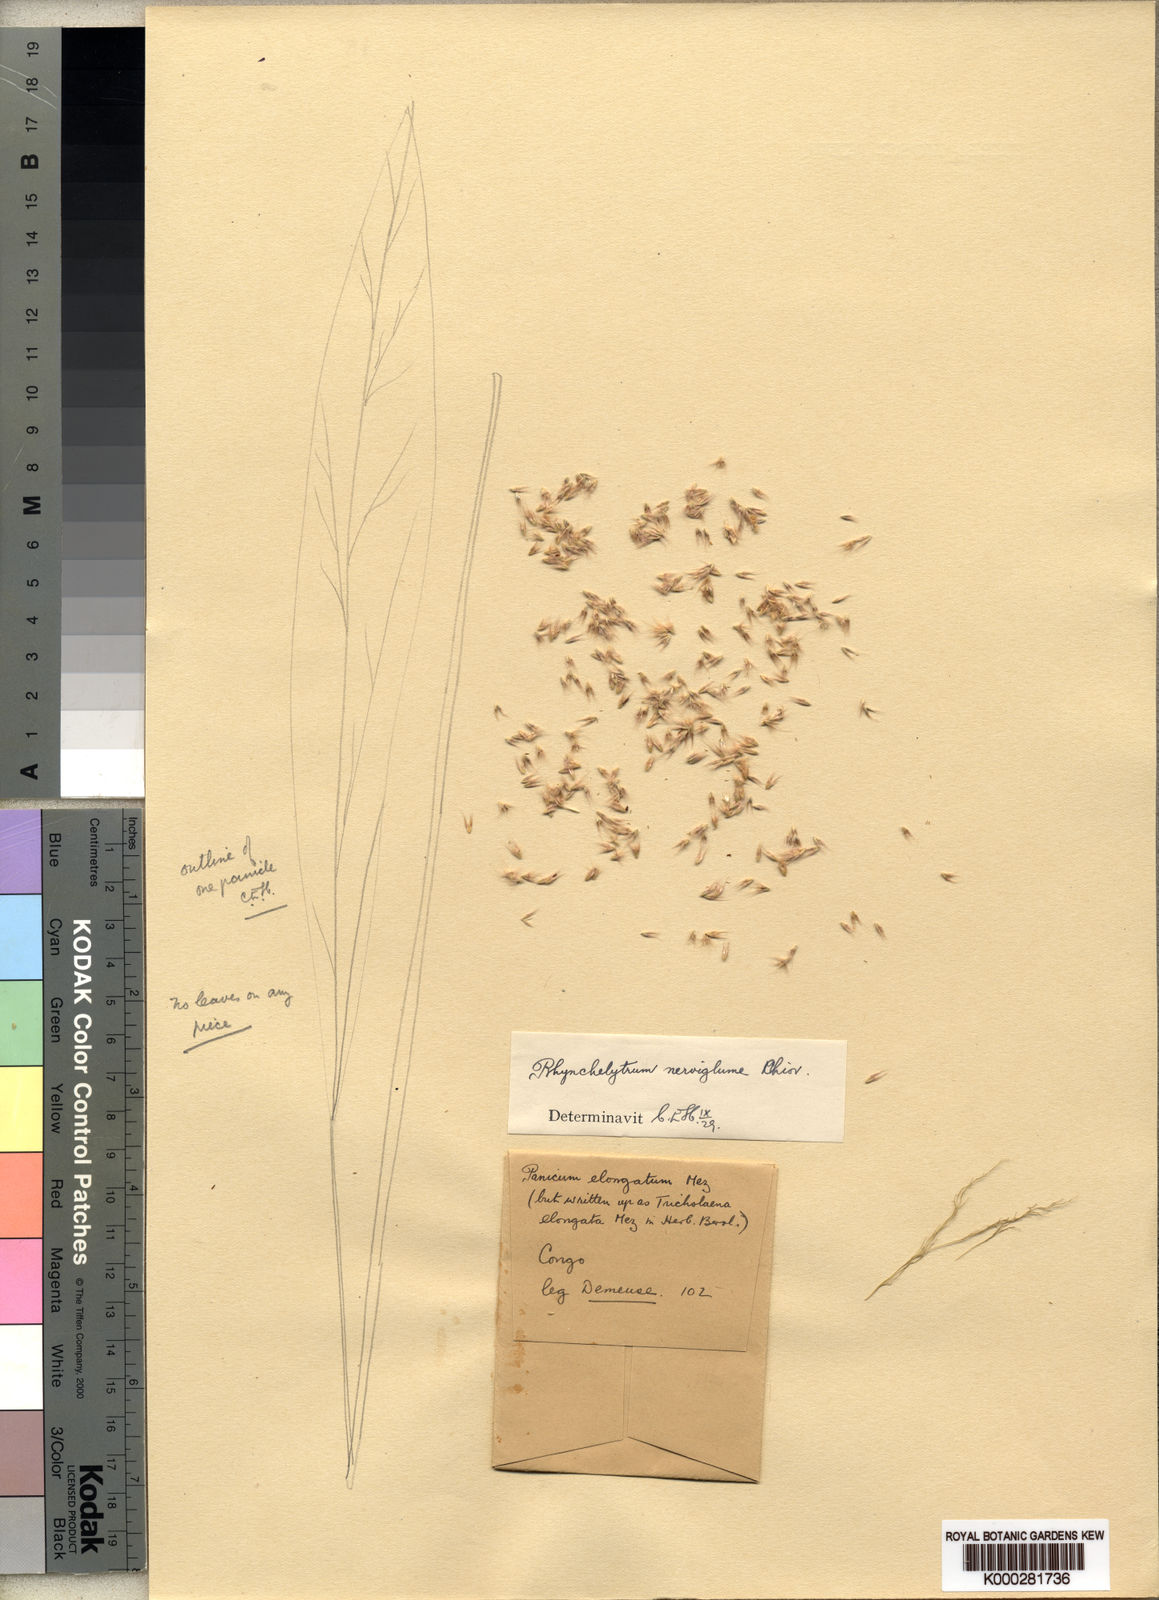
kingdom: Plantae
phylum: Tracheophyta
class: Liliopsida
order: Poales
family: Poaceae
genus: Melinis
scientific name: Melinis nerviglumis
